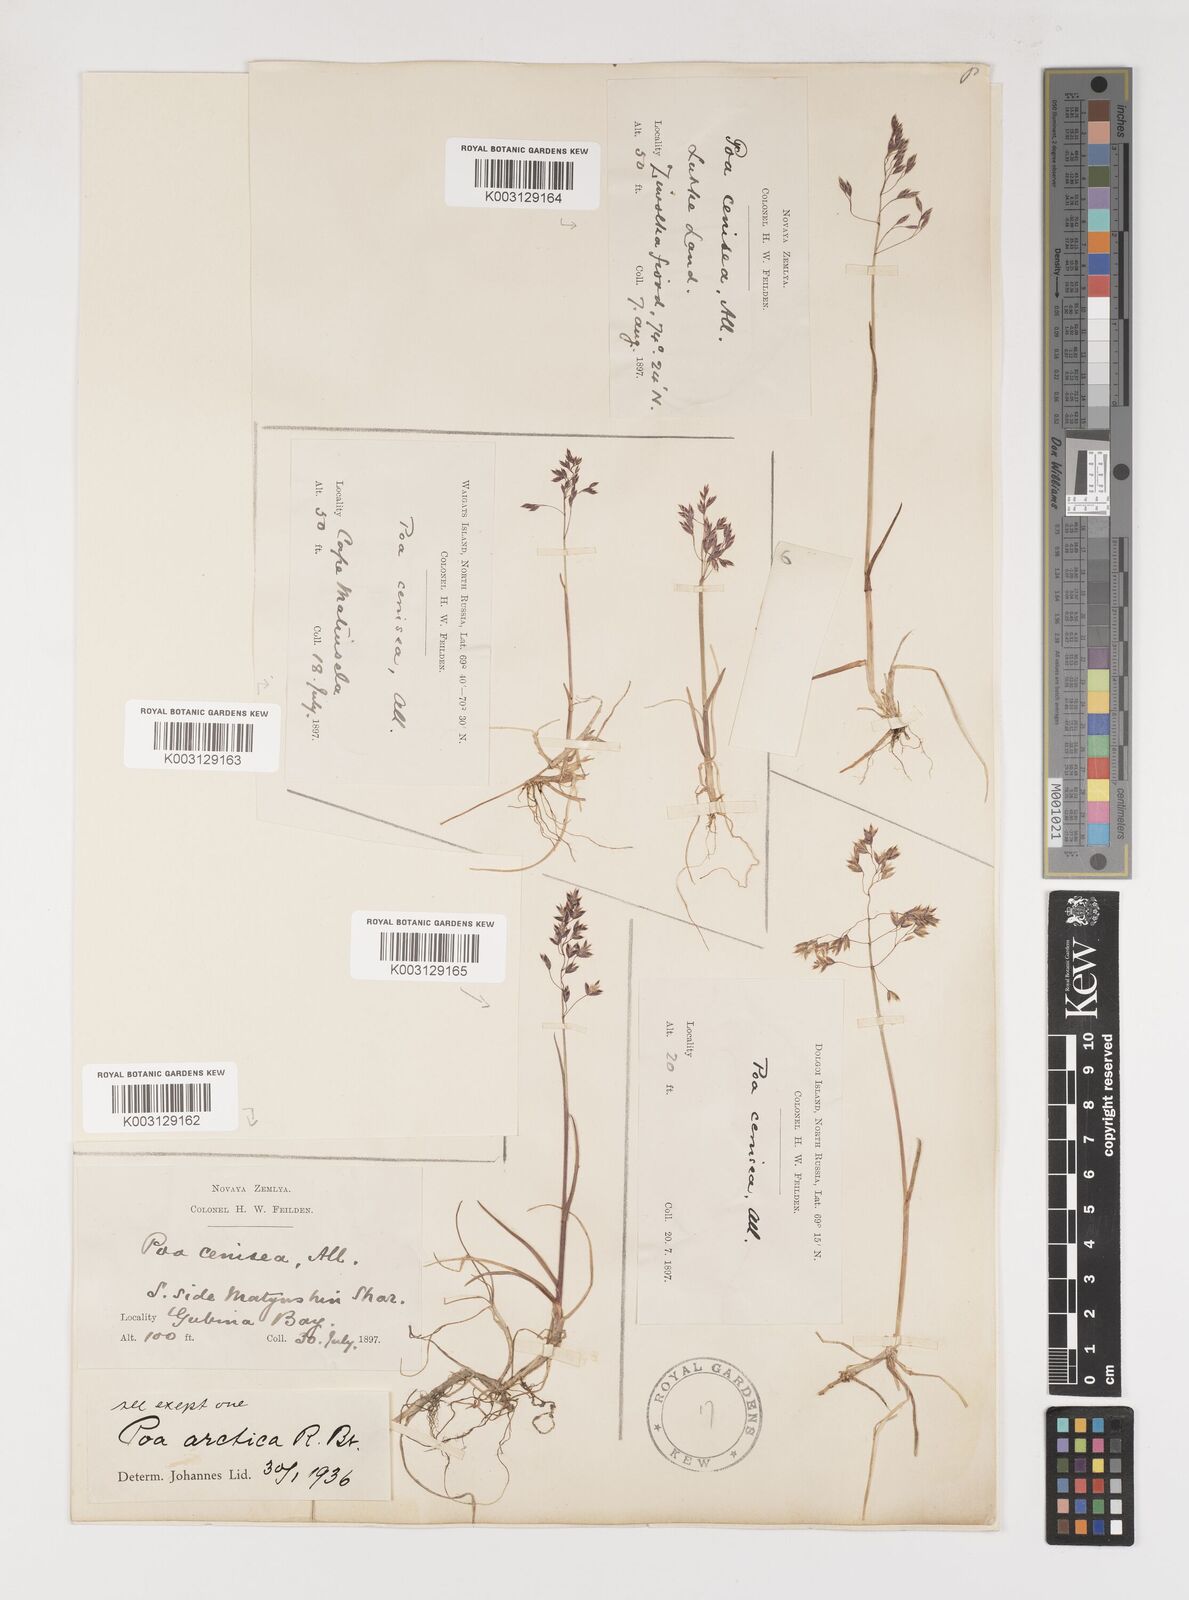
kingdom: Plantae
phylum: Tracheophyta
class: Liliopsida
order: Poales
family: Poaceae
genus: Poa
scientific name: Poa arctica
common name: Arctic bluegrass
